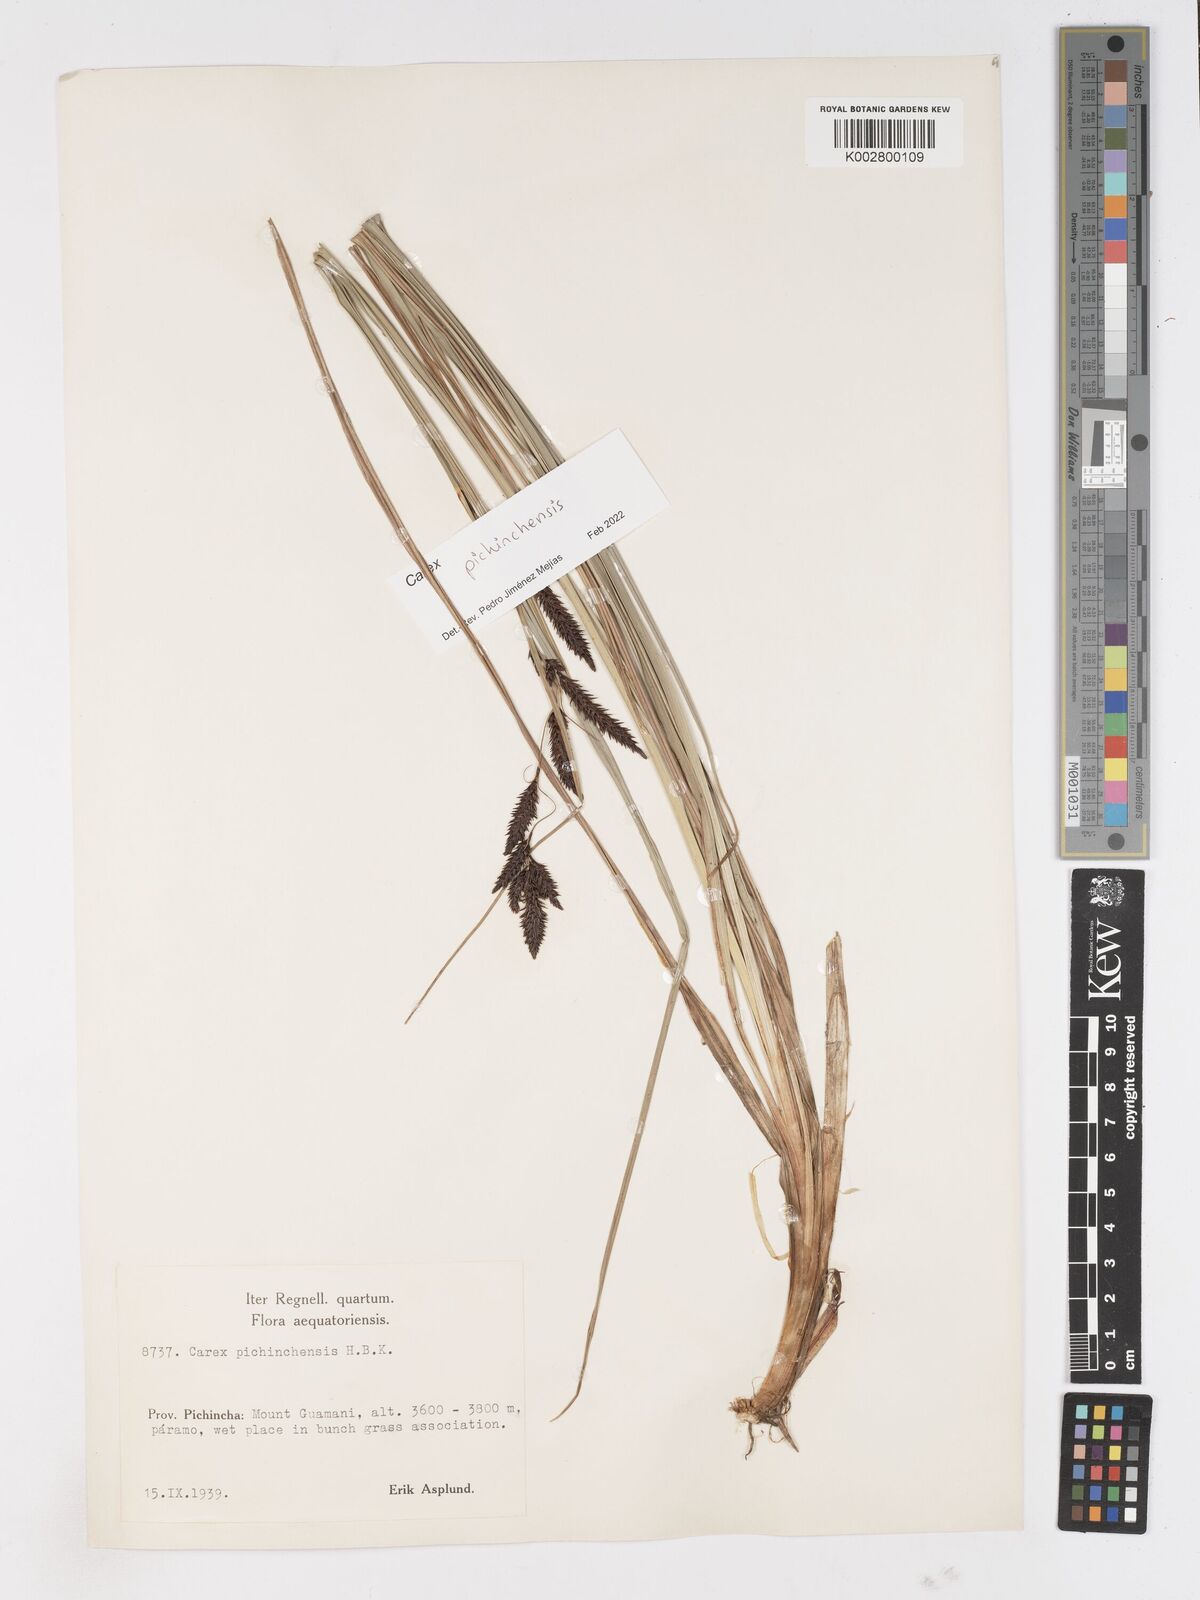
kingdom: Plantae
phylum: Tracheophyta
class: Liliopsida
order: Poales
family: Cyperaceae
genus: Carex
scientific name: Carex pichinchensis
